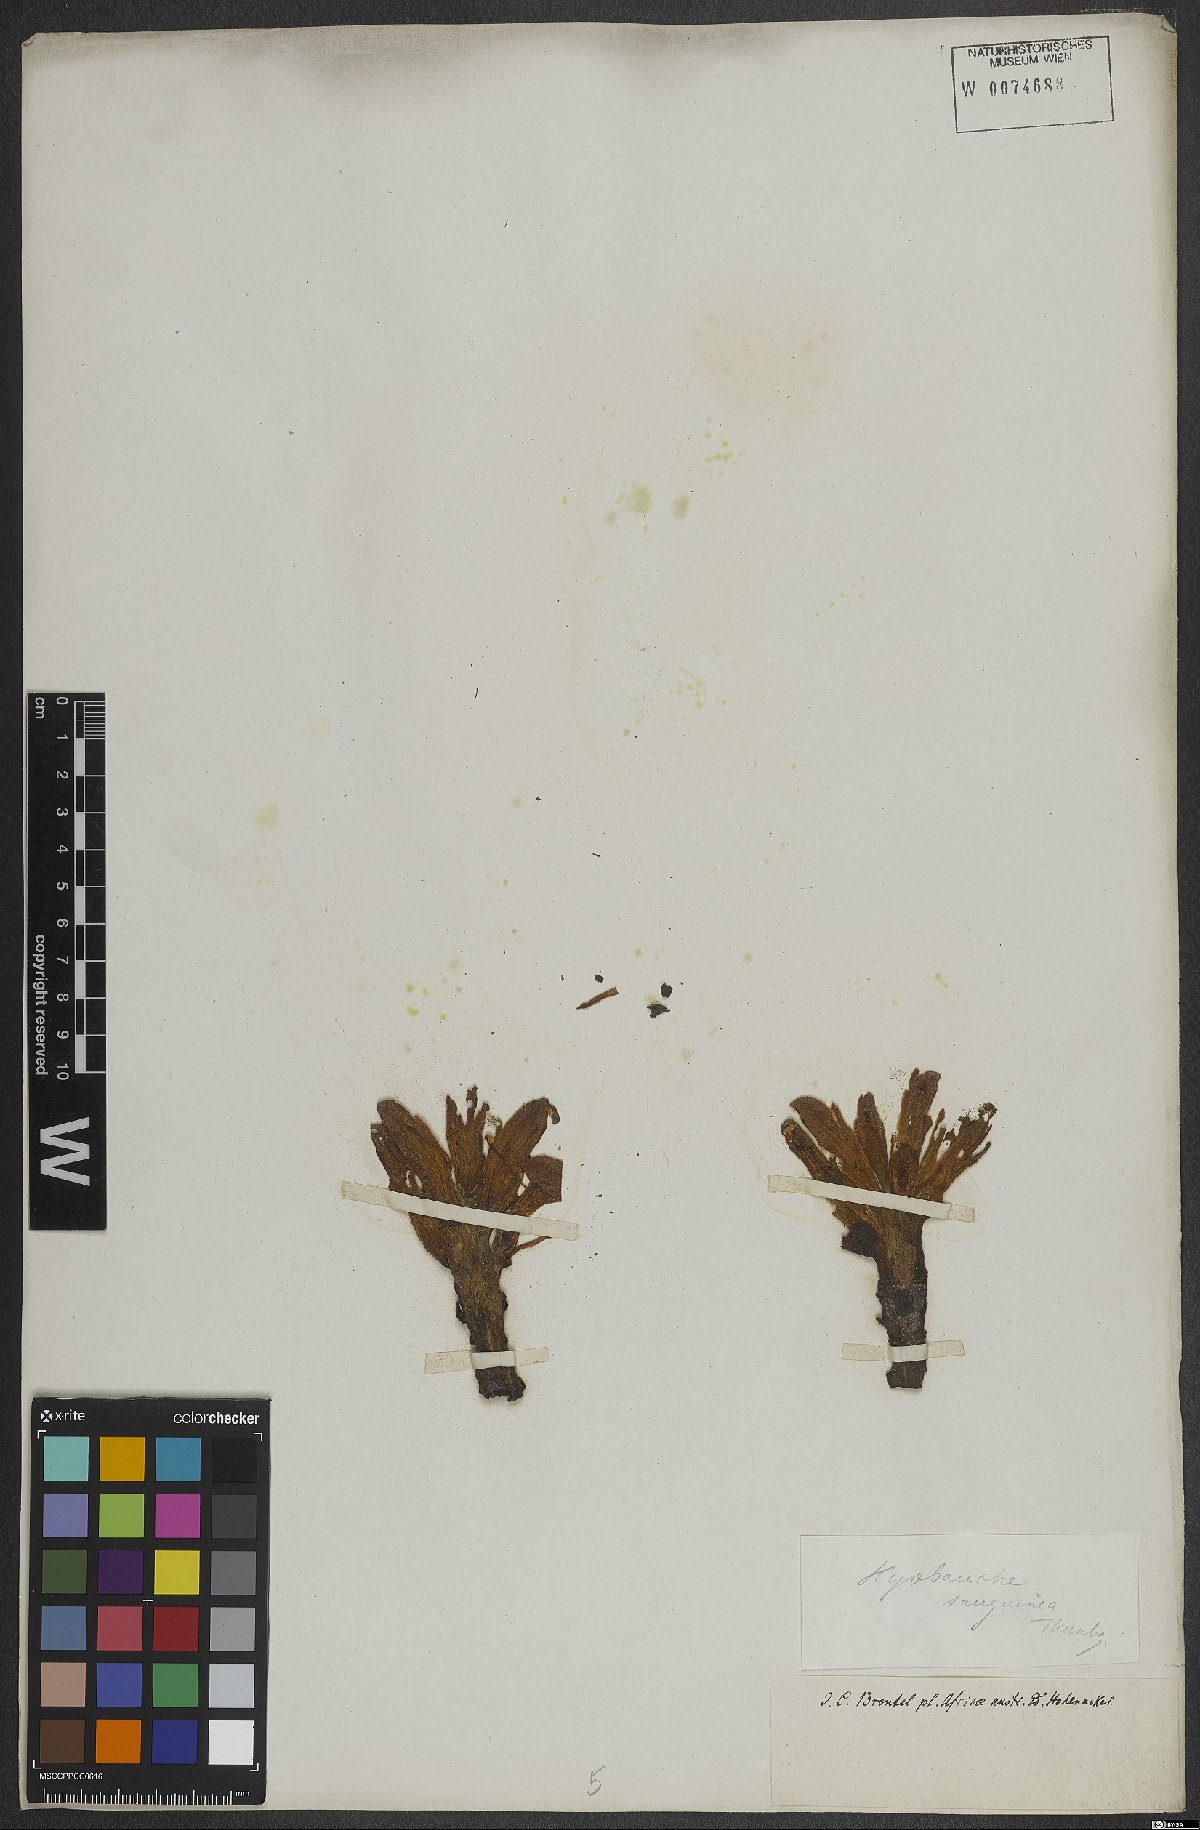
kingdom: Plantae
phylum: Tracheophyta
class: Magnoliopsida
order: Lamiales
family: Orobanchaceae
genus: Hyobanche
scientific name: Hyobanche sanguinea
